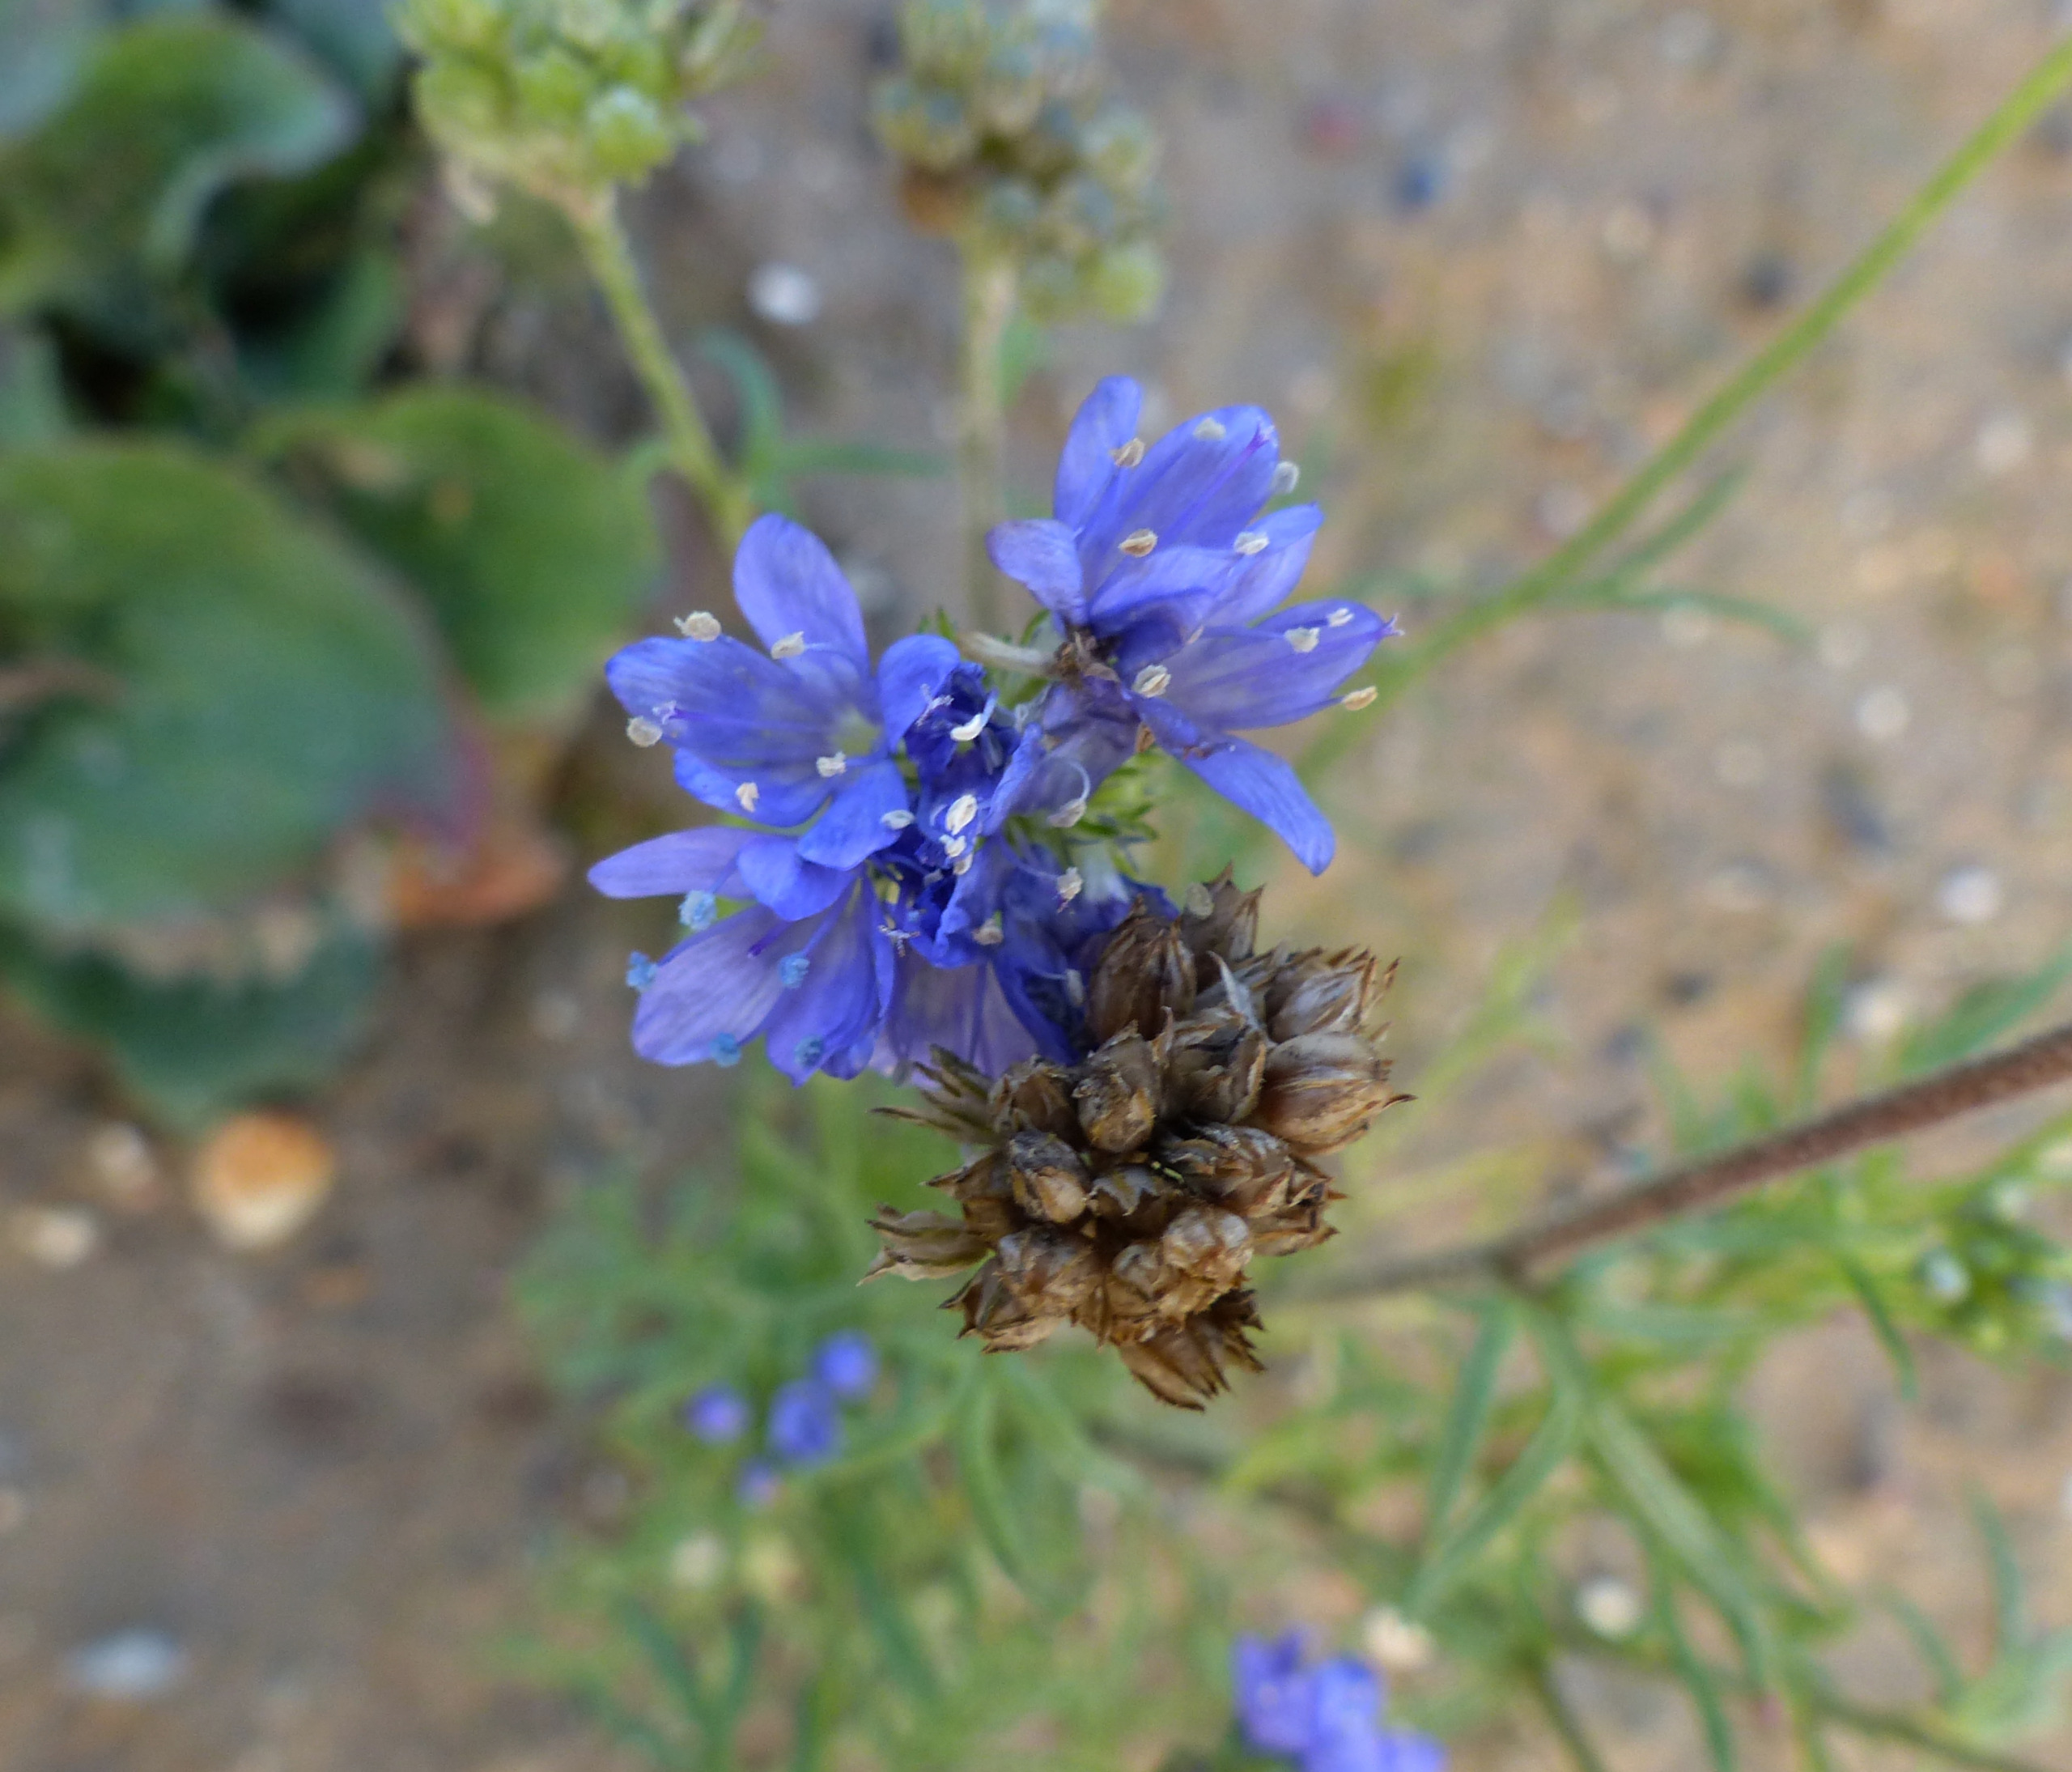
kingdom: Plantae
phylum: Tracheophyta
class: Magnoliopsida
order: Ericales
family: Polemoniaceae
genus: Gilia
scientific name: Gilia achilleifolia
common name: Fjer-blåhoved
